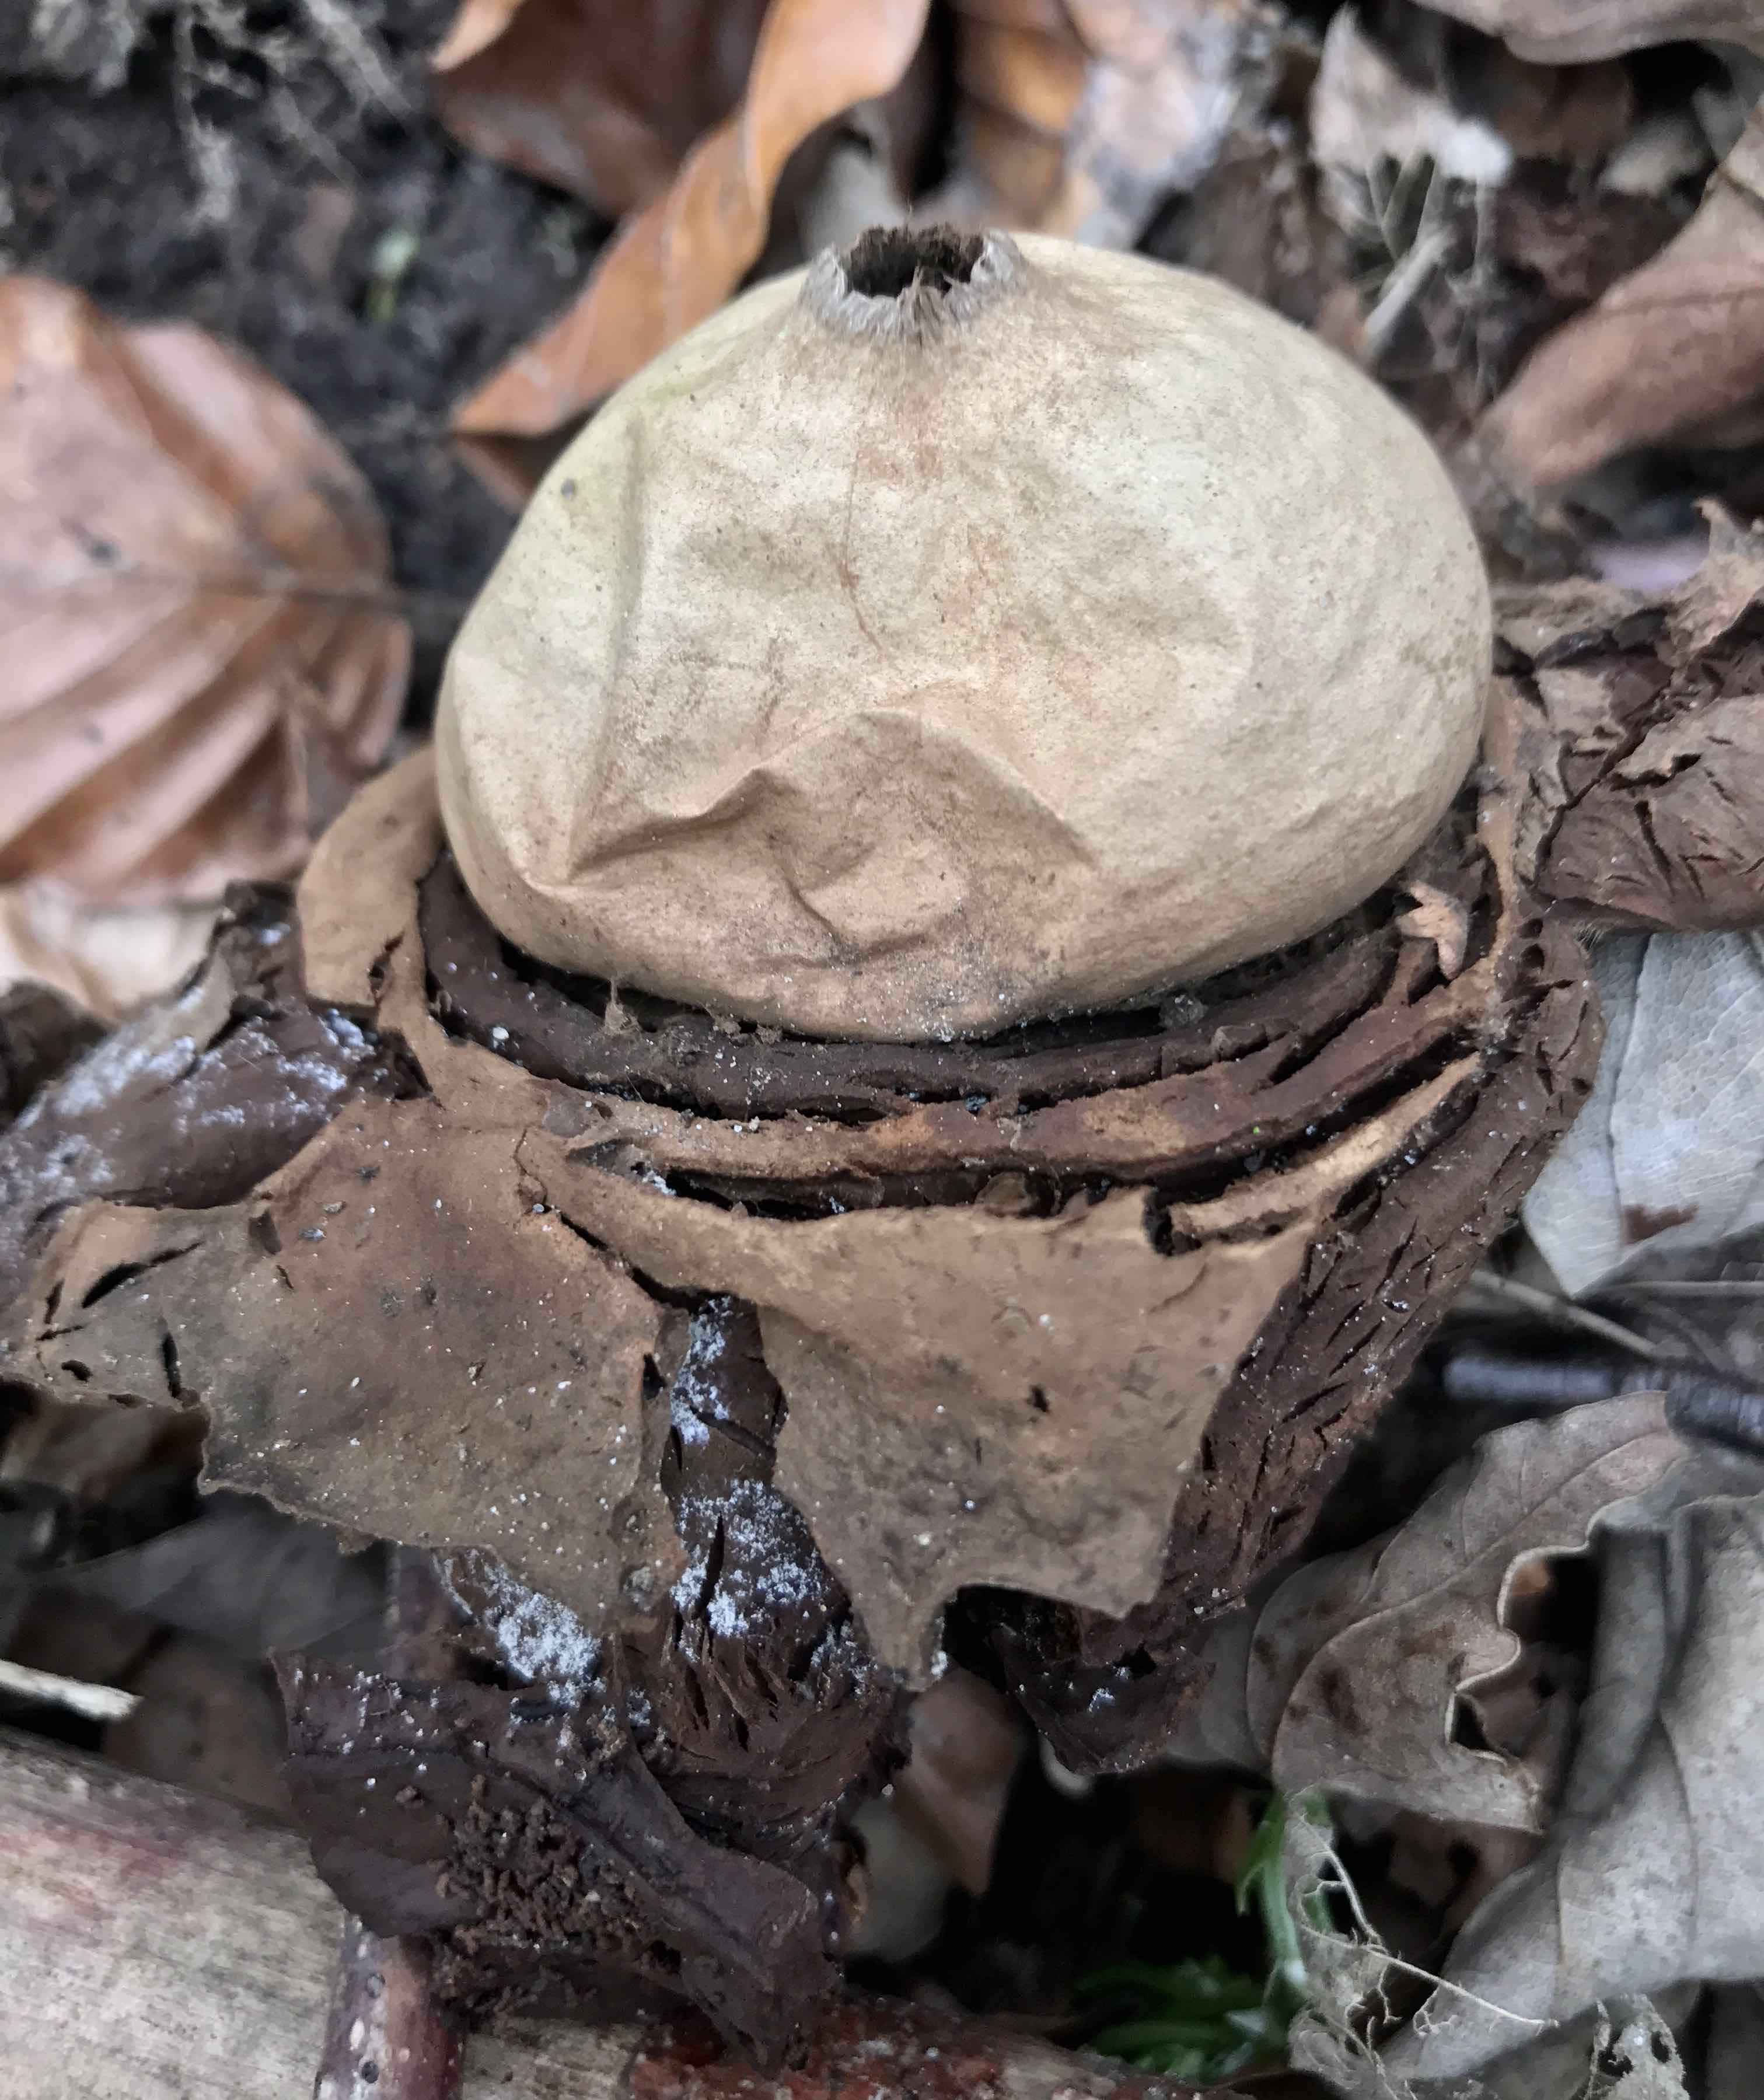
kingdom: Fungi
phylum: Basidiomycota
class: Agaricomycetes
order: Geastrales
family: Geastraceae
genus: Geastrum
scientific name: Geastrum michelianum
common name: kødet stjernebold
